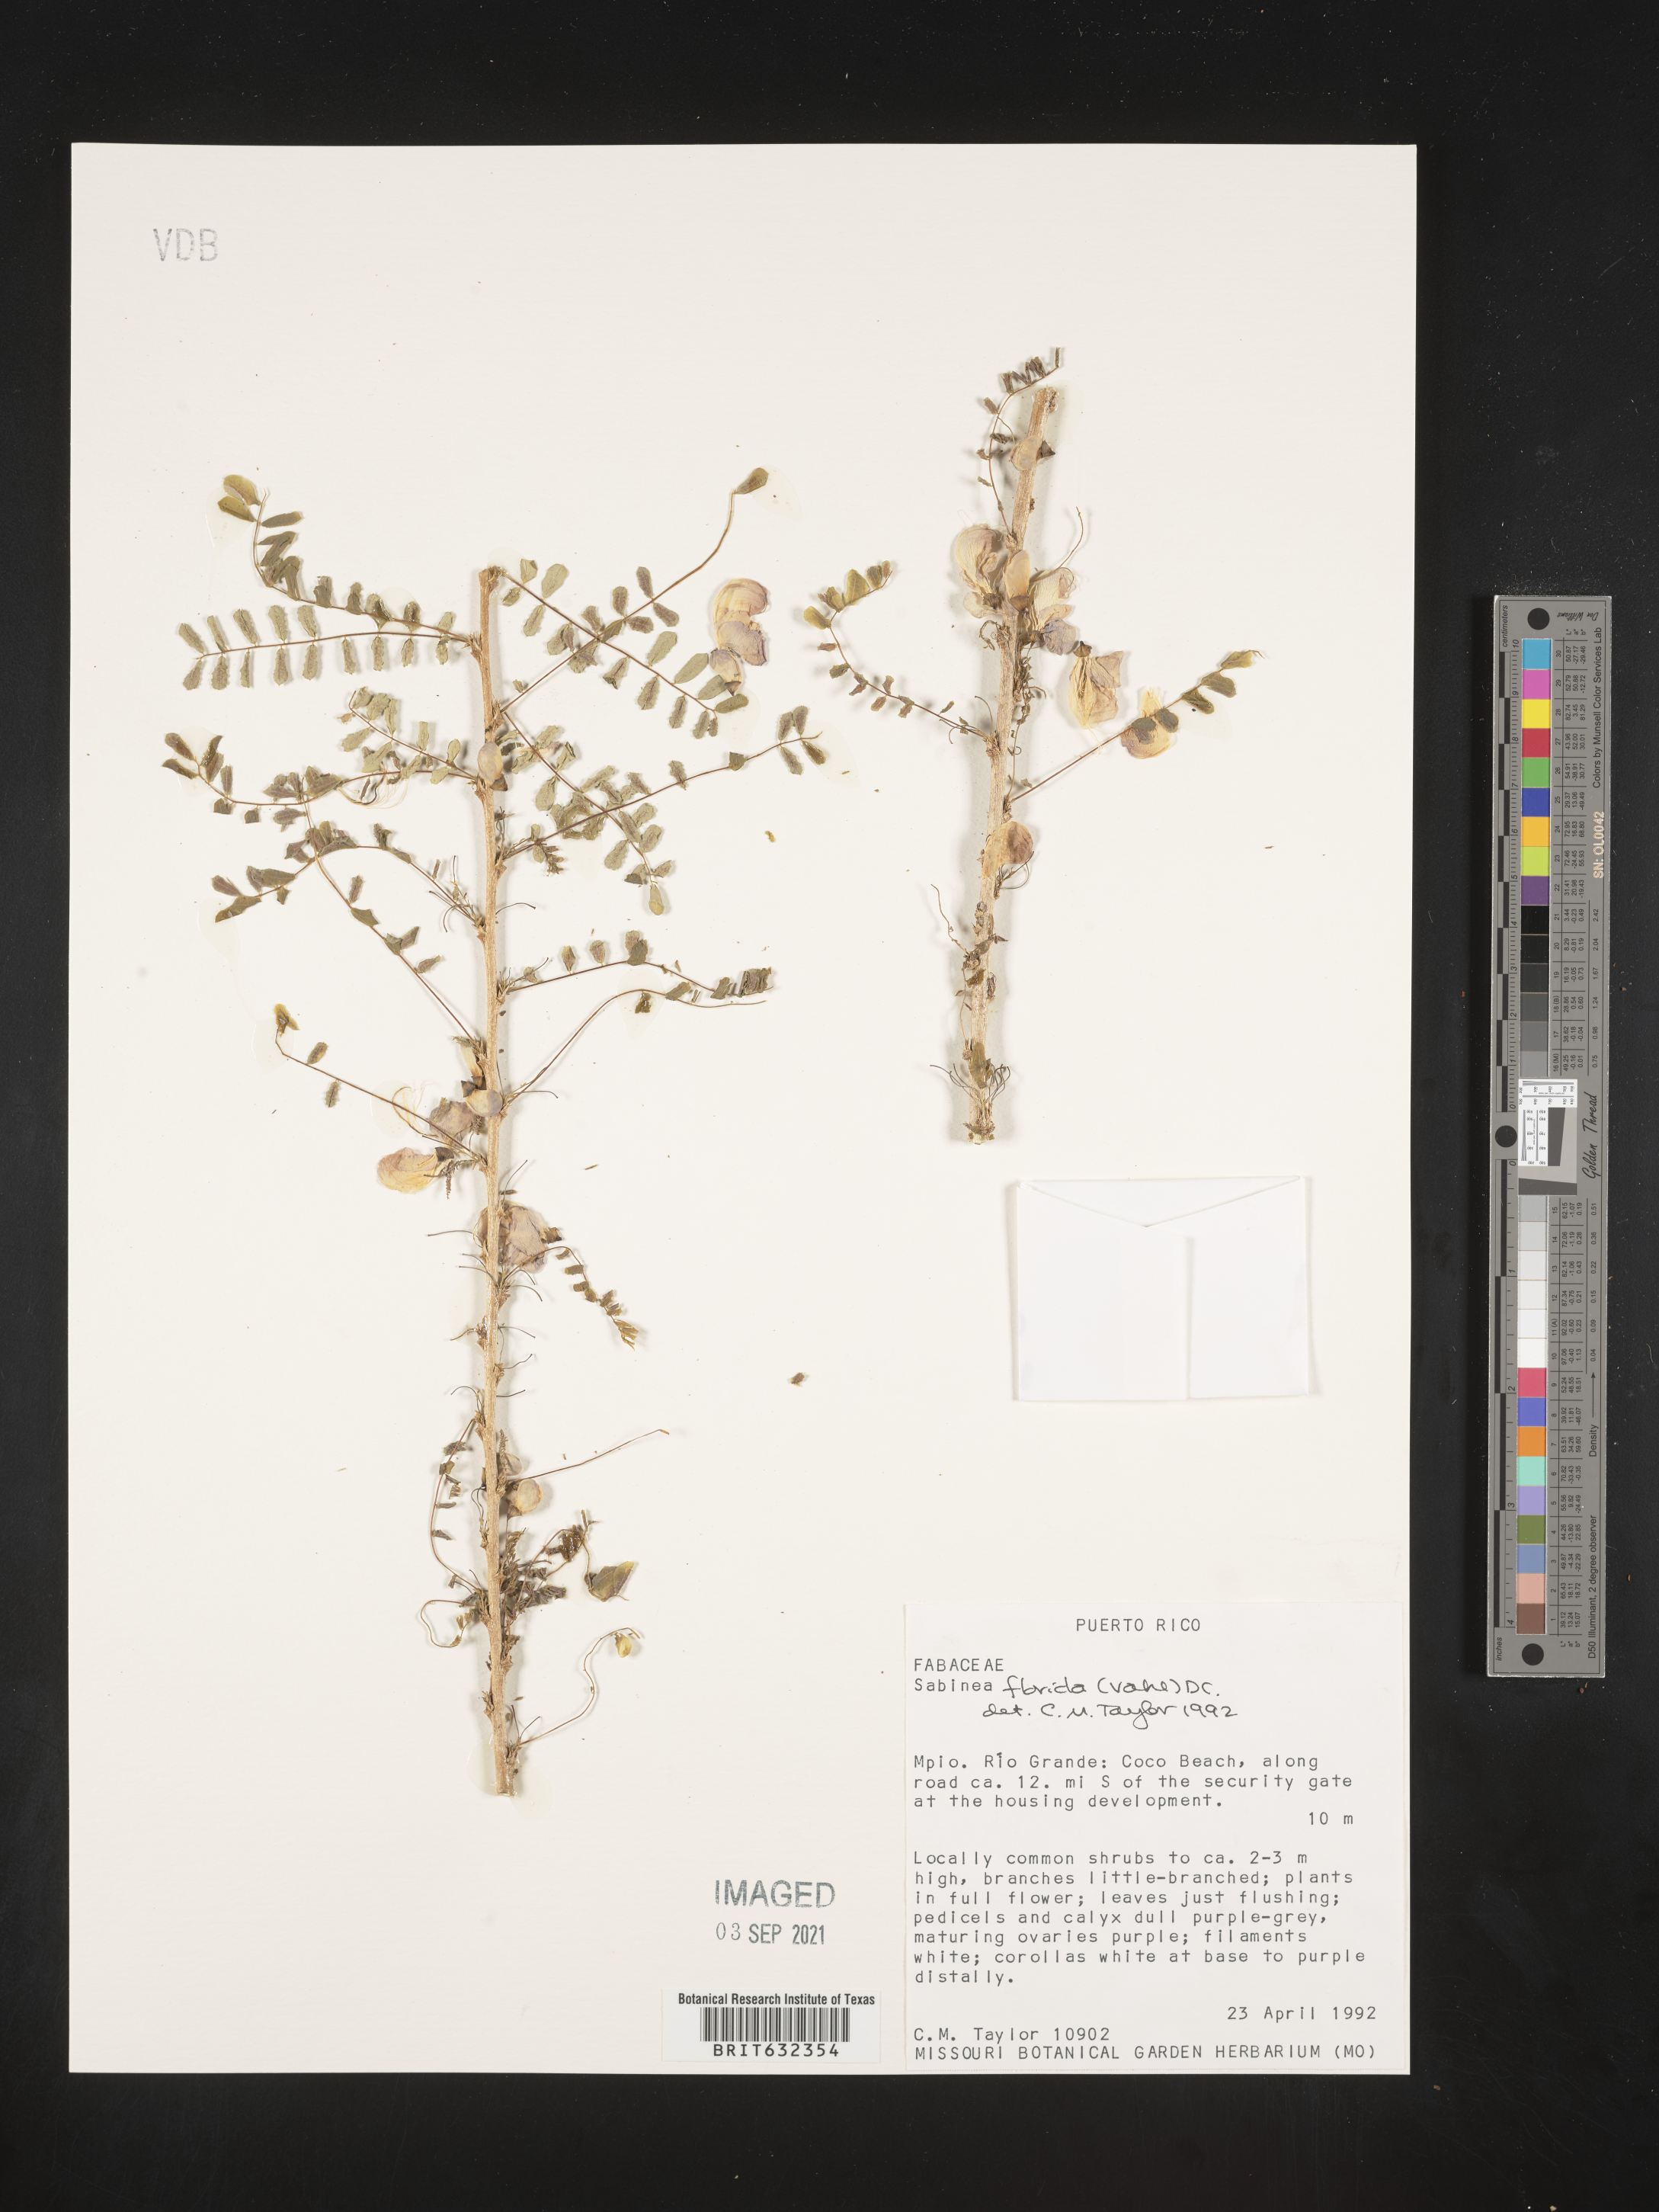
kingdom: Plantae
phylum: Tracheophyta
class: Magnoliopsida
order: Fabales
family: Fabaceae
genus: Poitea
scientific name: Poitea florida
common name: Soldier whip
